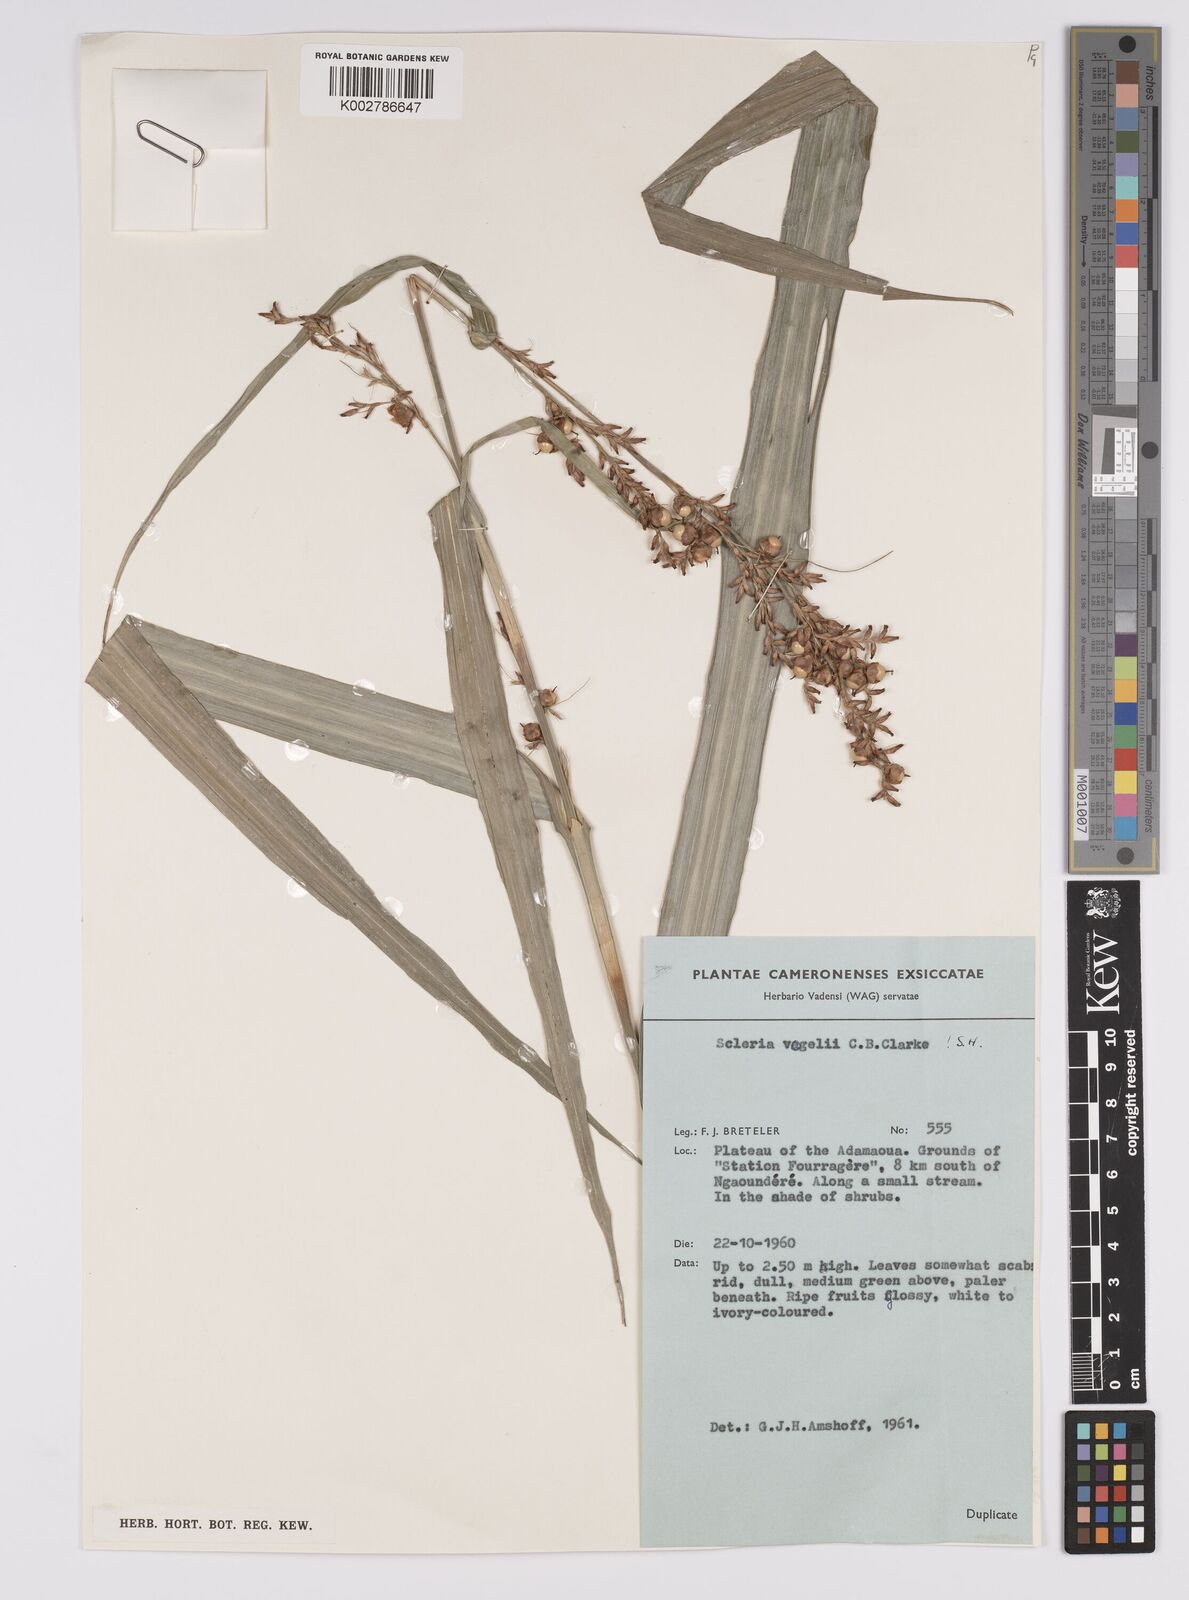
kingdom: Plantae
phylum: Tracheophyta
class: Liliopsida
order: Poales
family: Cyperaceae
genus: Scleria
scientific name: Scleria racemosa
